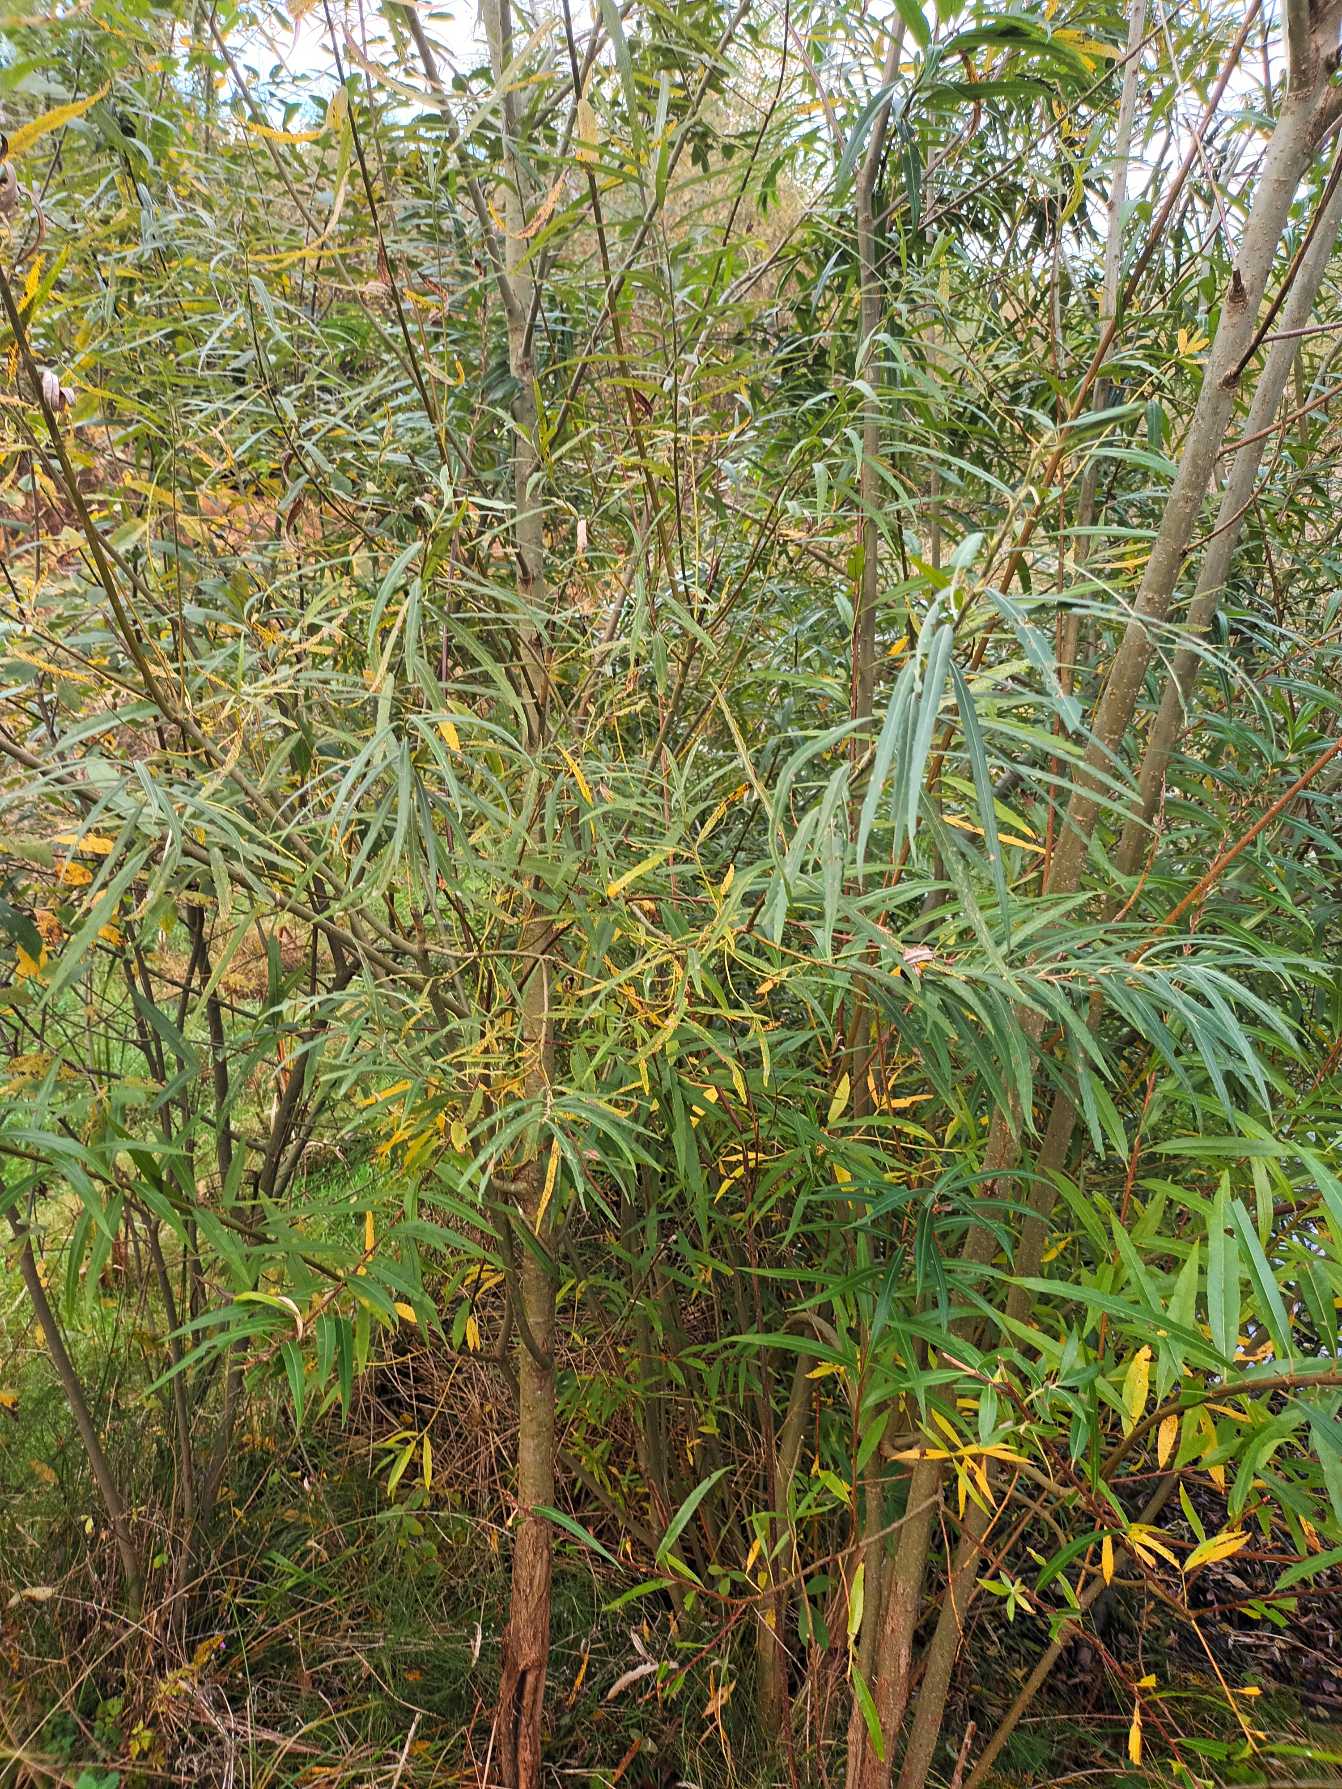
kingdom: Plantae
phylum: Tracheophyta
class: Magnoliopsida
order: Malpighiales
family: Salicaceae
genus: Salix
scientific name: Salix viminalis
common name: Bånd-pil
